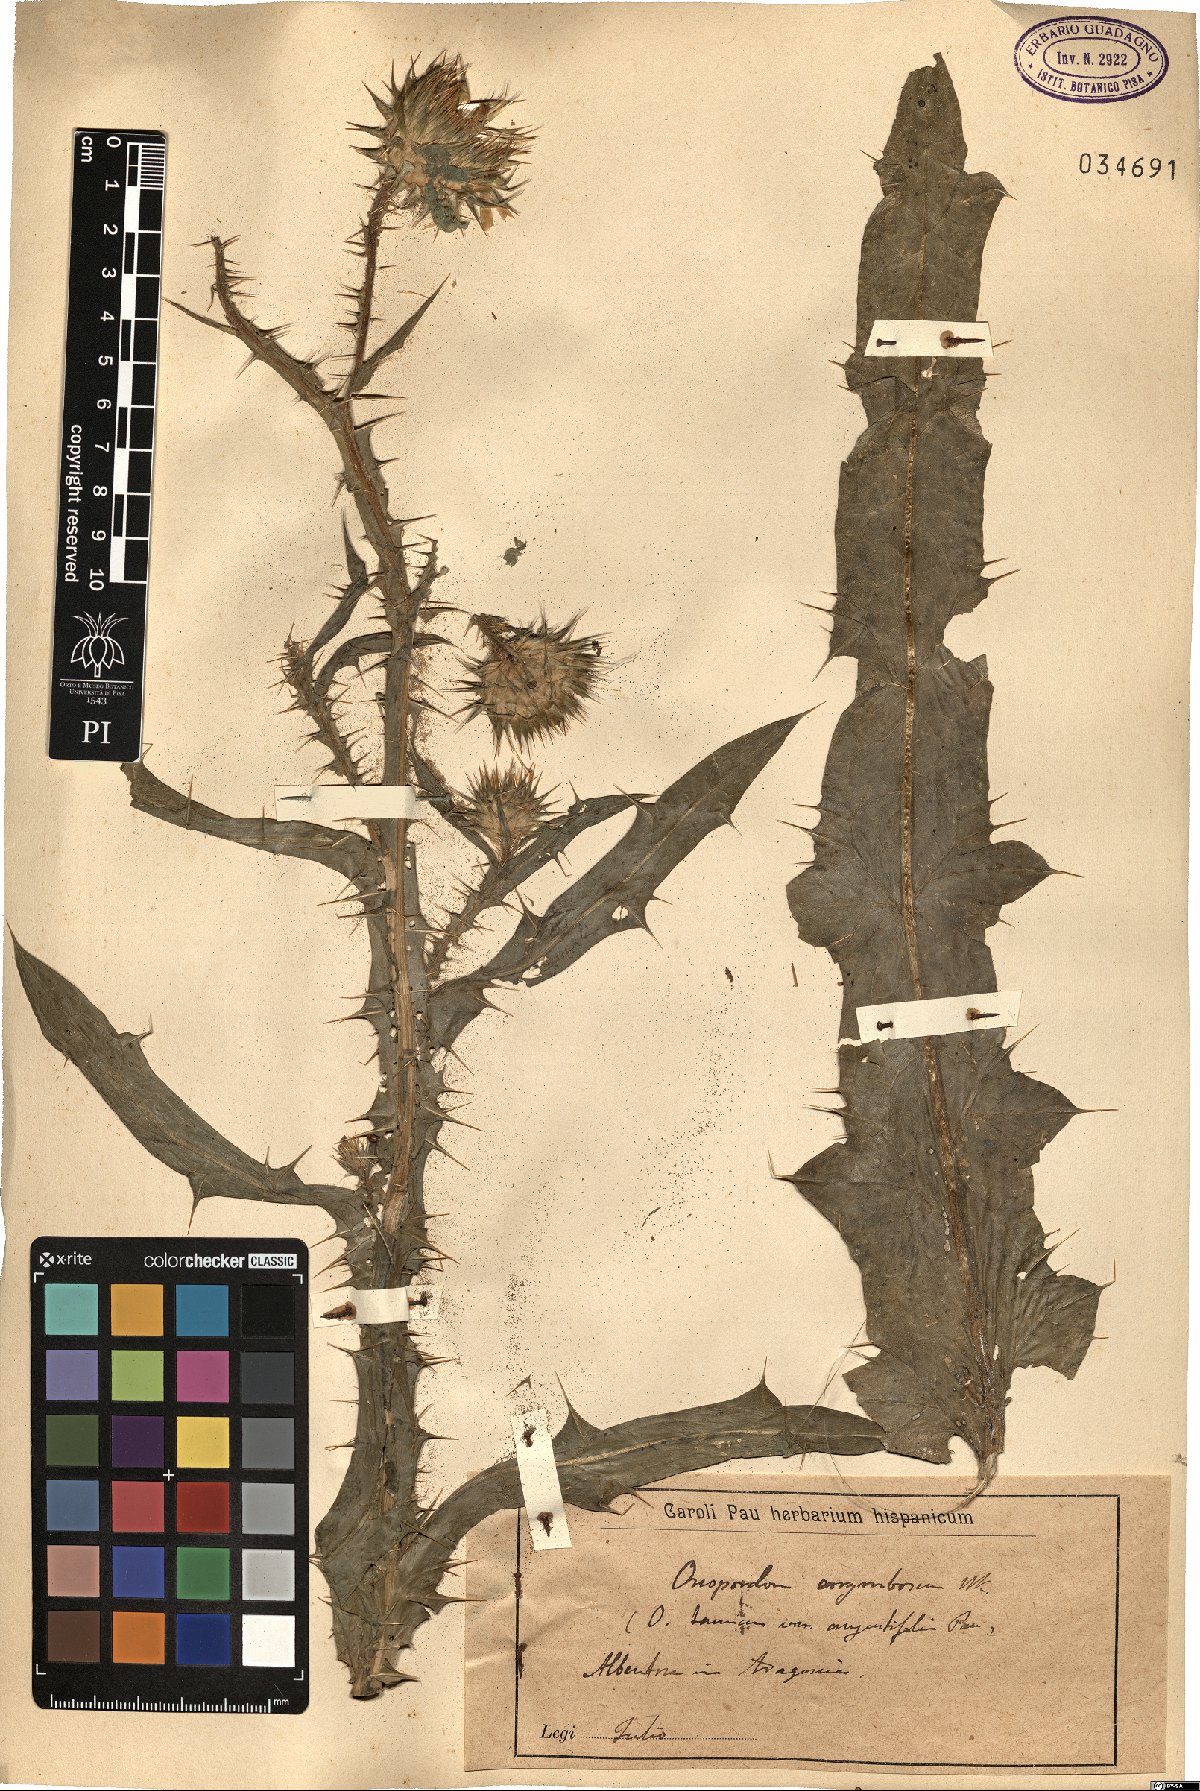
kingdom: Plantae
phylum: Tracheophyta
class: Magnoliopsida
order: Asterales
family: Asteraceae
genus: Onopordum
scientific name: Onopordum corymbosum
